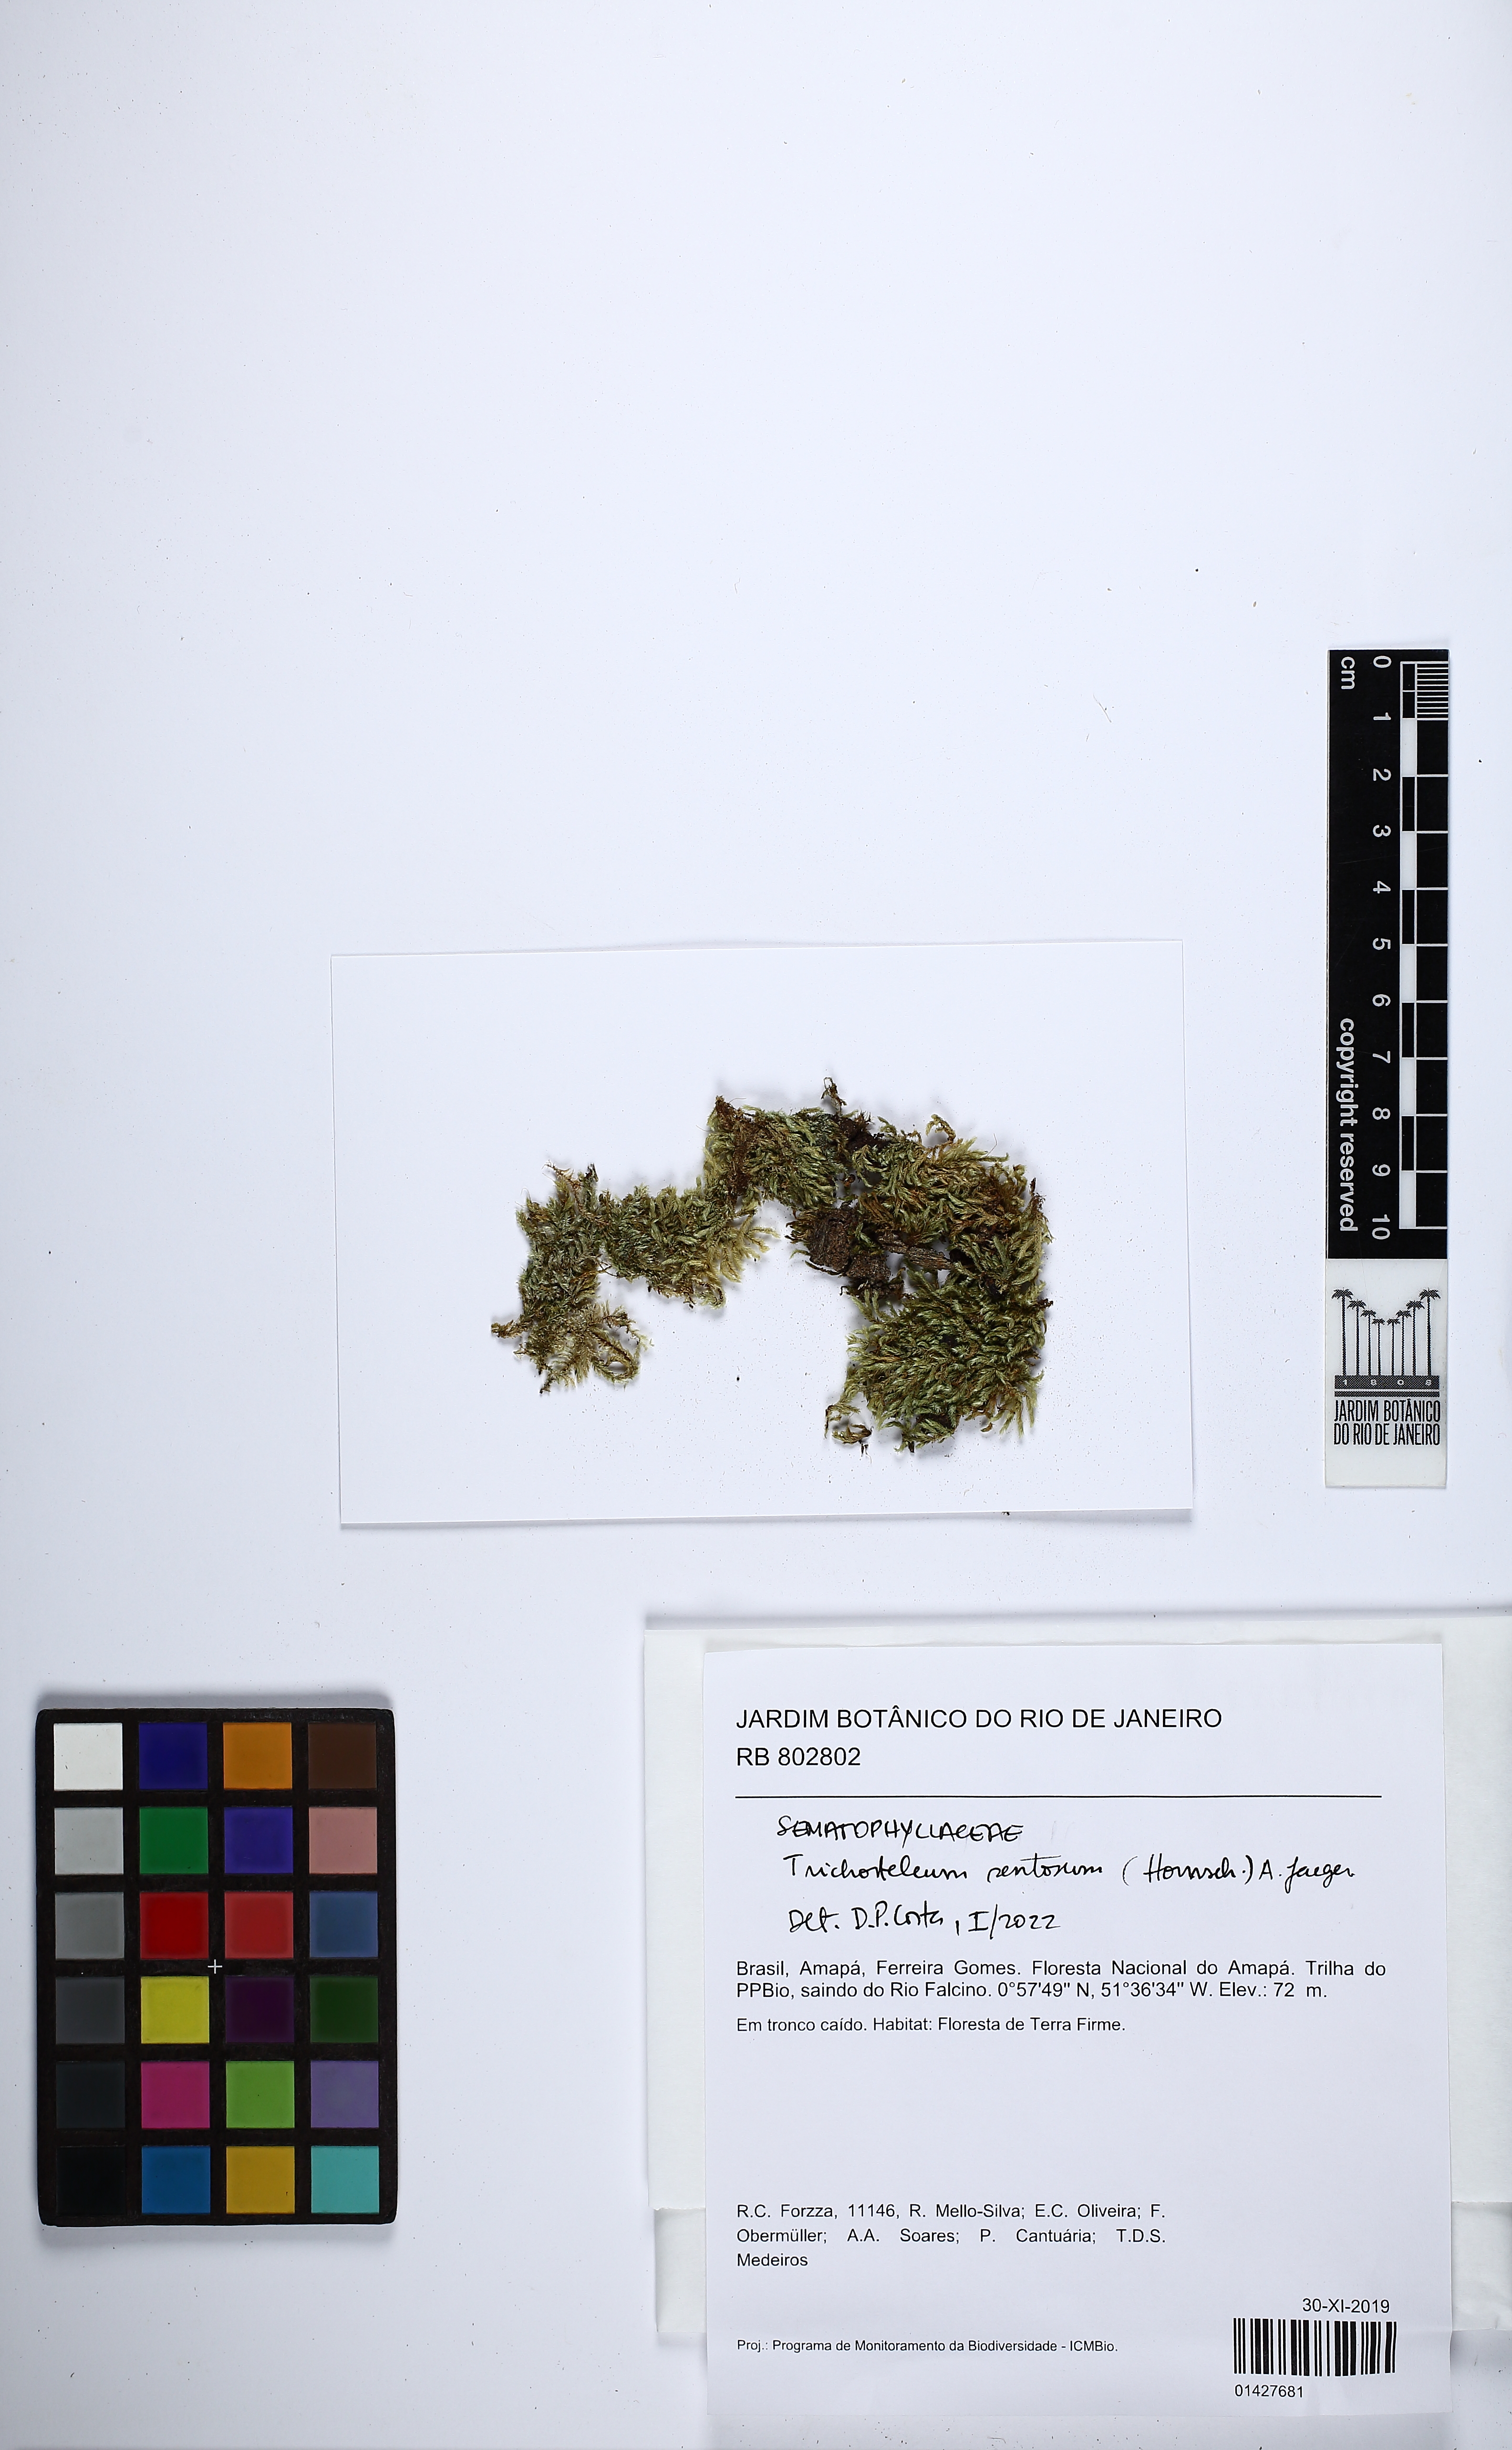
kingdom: Plantae
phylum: Bryophyta
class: Bryopsida
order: Hypnales
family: Sematophyllaceae
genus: Trichosteleum
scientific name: Trichosteleum sentosum
